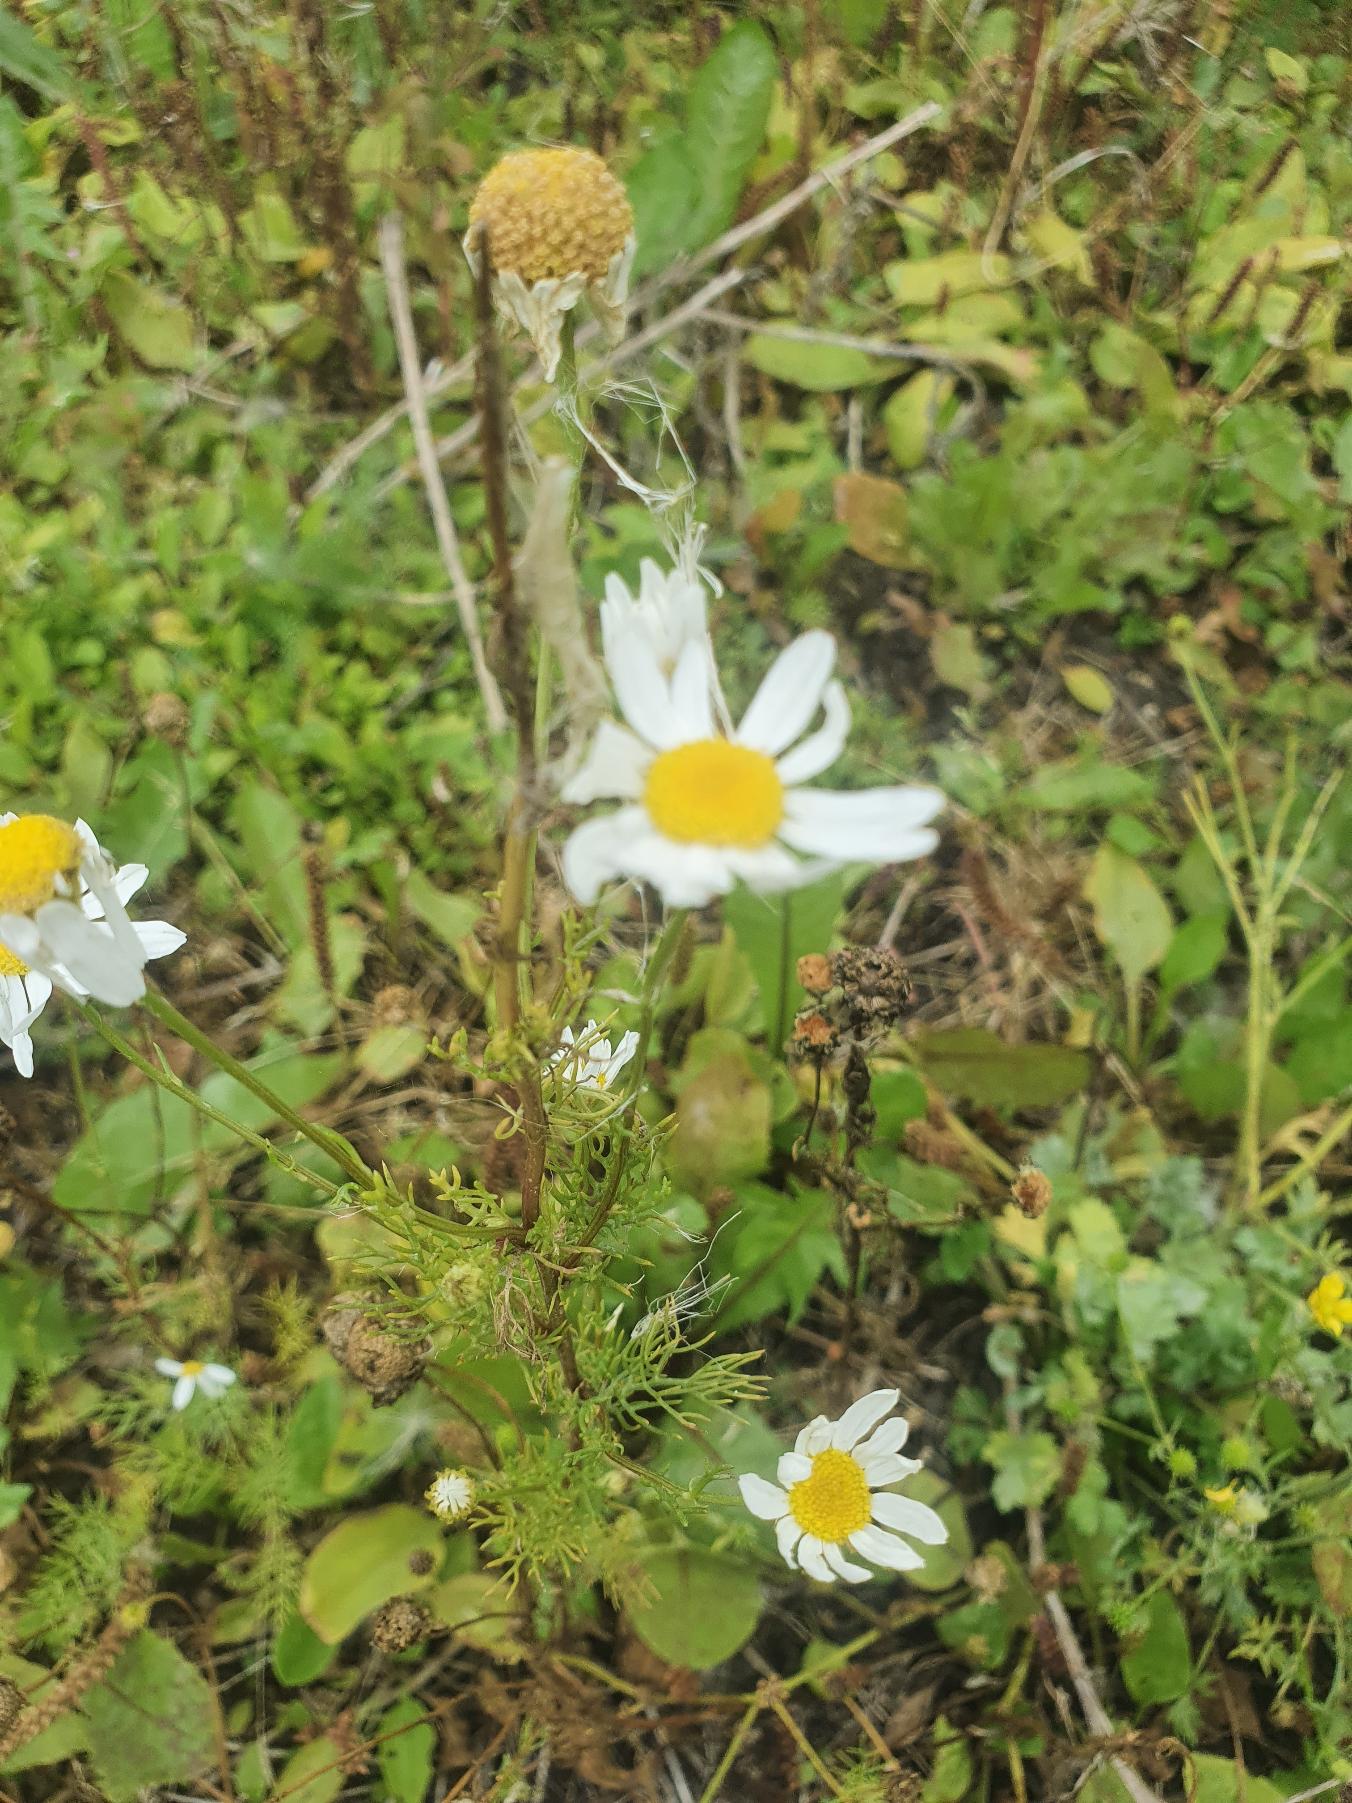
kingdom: Plantae
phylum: Tracheophyta
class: Magnoliopsida
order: Asterales
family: Asteraceae
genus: Tripleurospermum
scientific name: Tripleurospermum inodorum
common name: Lugtløs kamille
